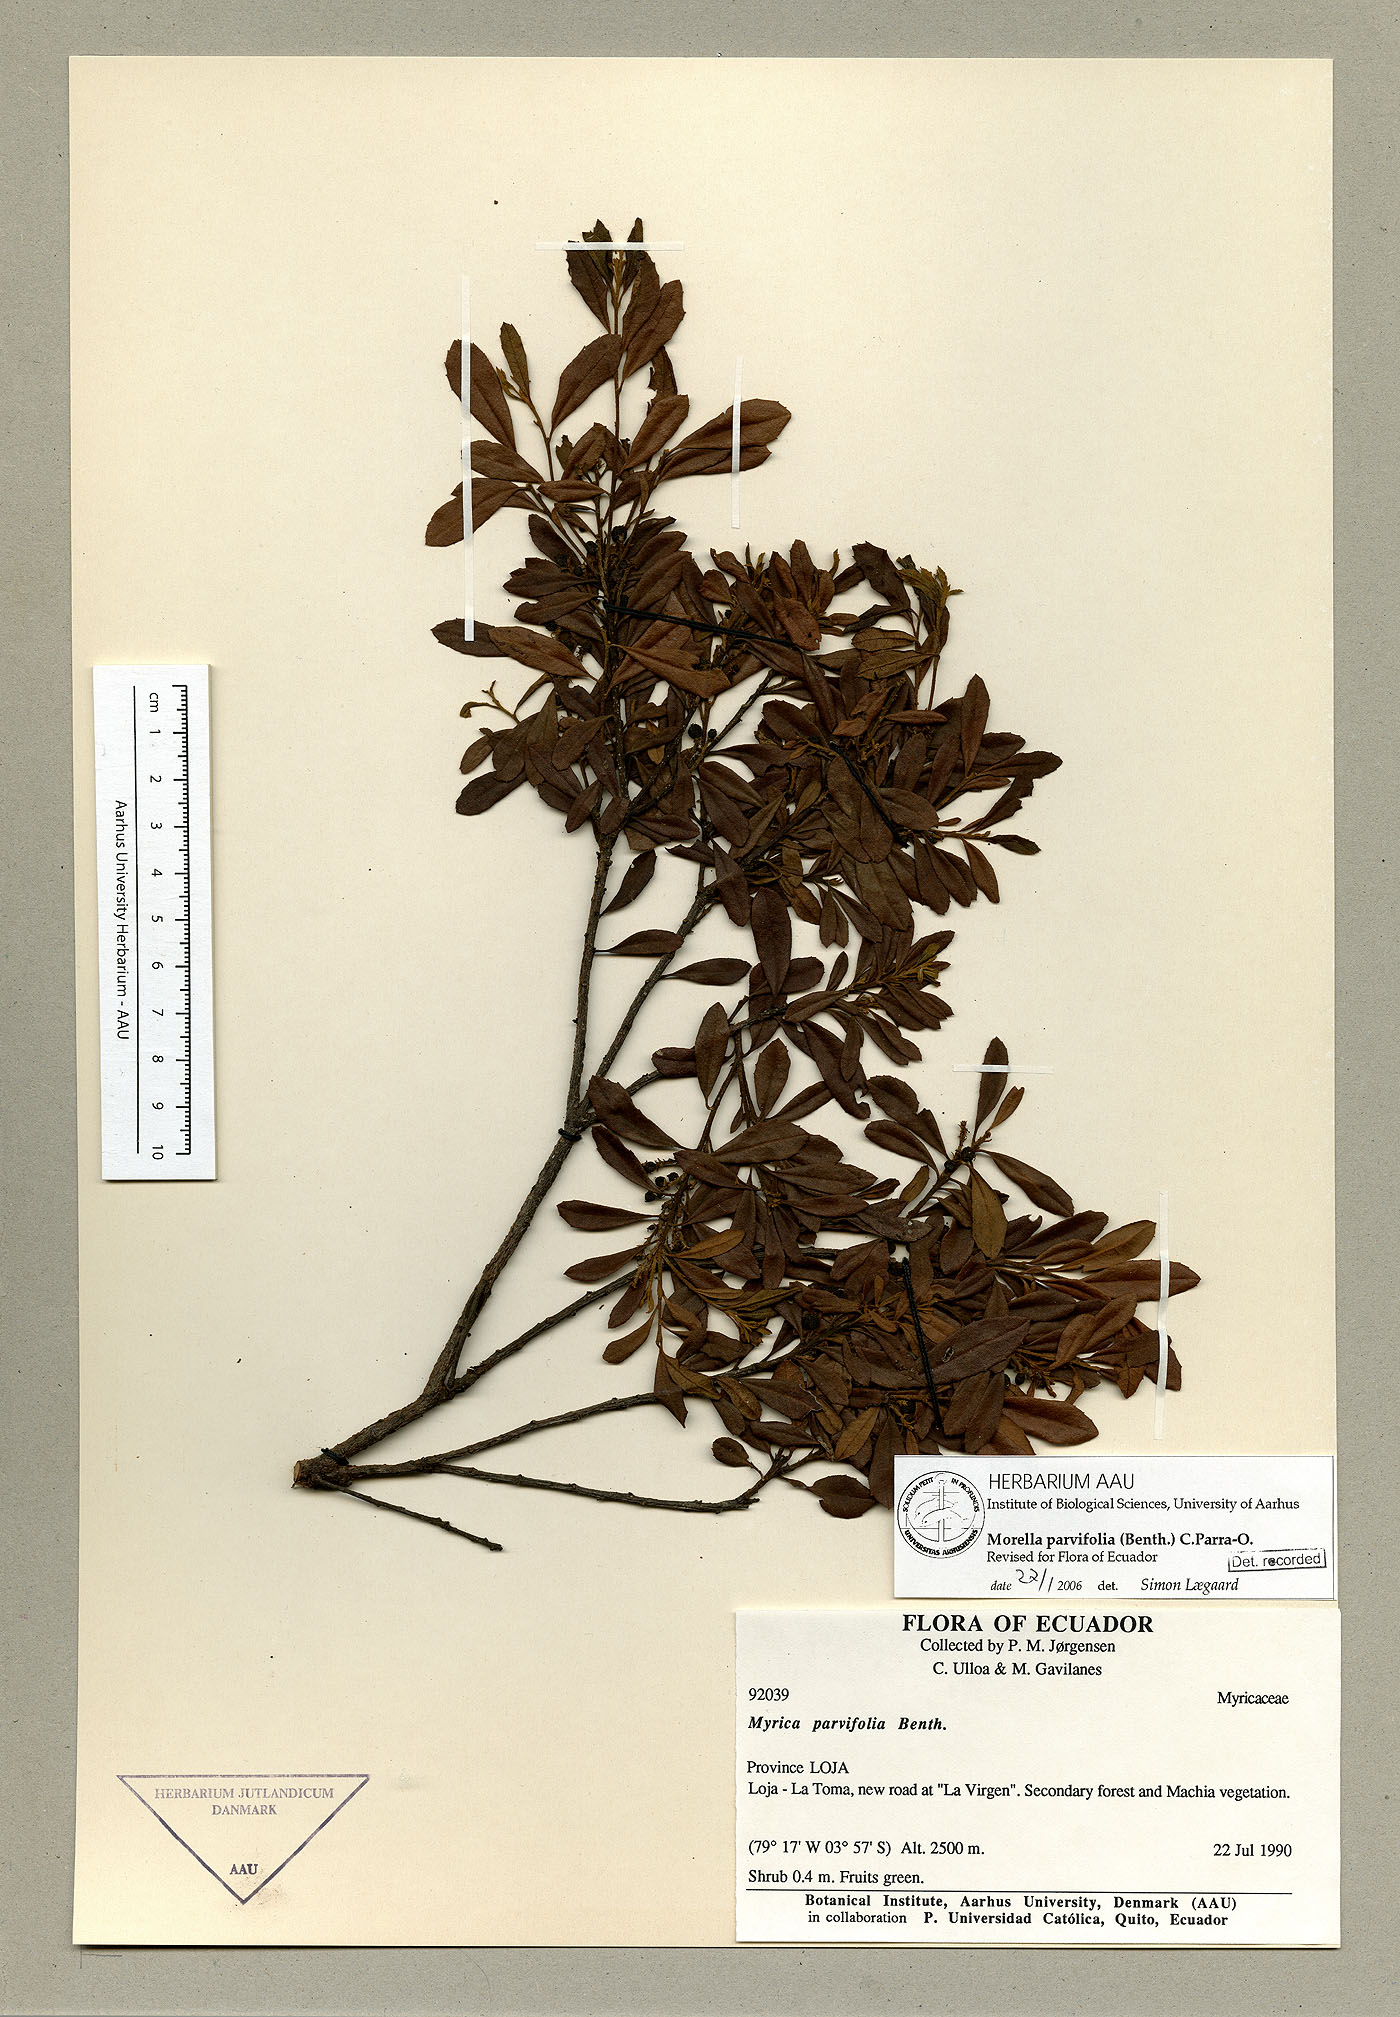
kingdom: Plantae
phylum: Tracheophyta
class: Magnoliopsida
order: Fagales
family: Myricaceae
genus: Morella
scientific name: Morella parvifolia
